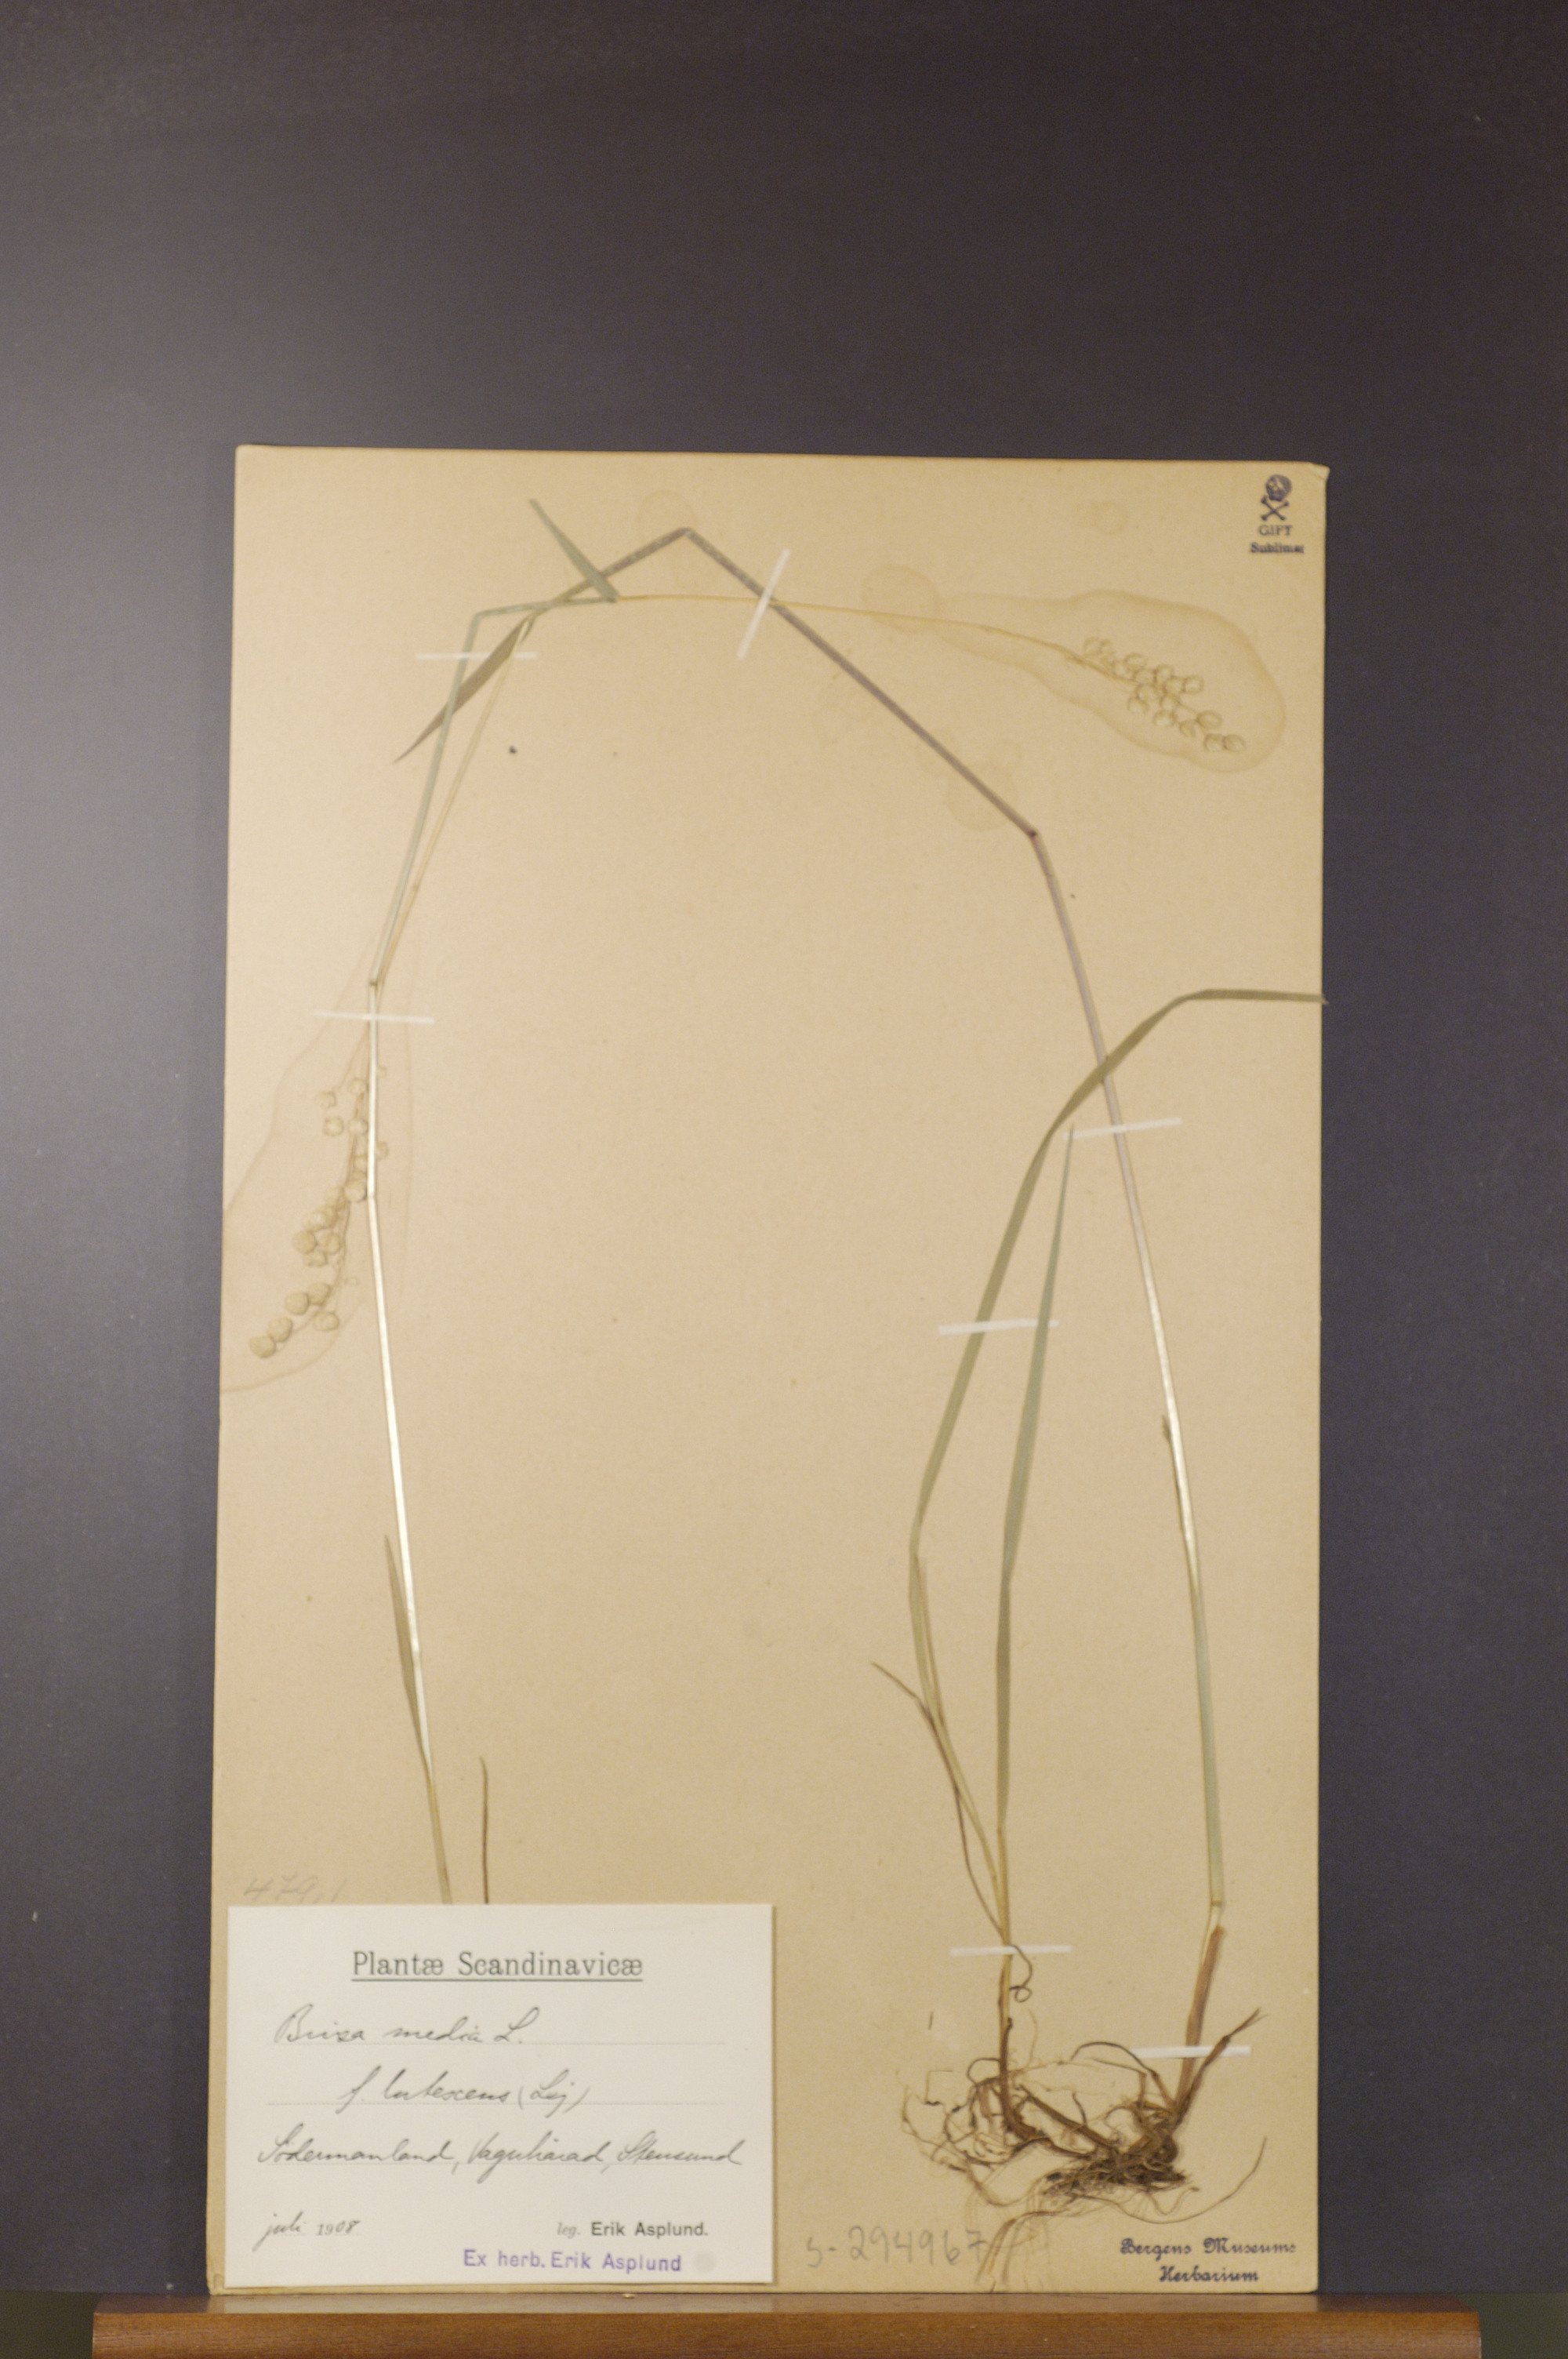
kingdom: Plantae
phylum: Tracheophyta
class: Liliopsida
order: Poales
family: Poaceae
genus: Briza
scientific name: Briza media
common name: Quaking grass
